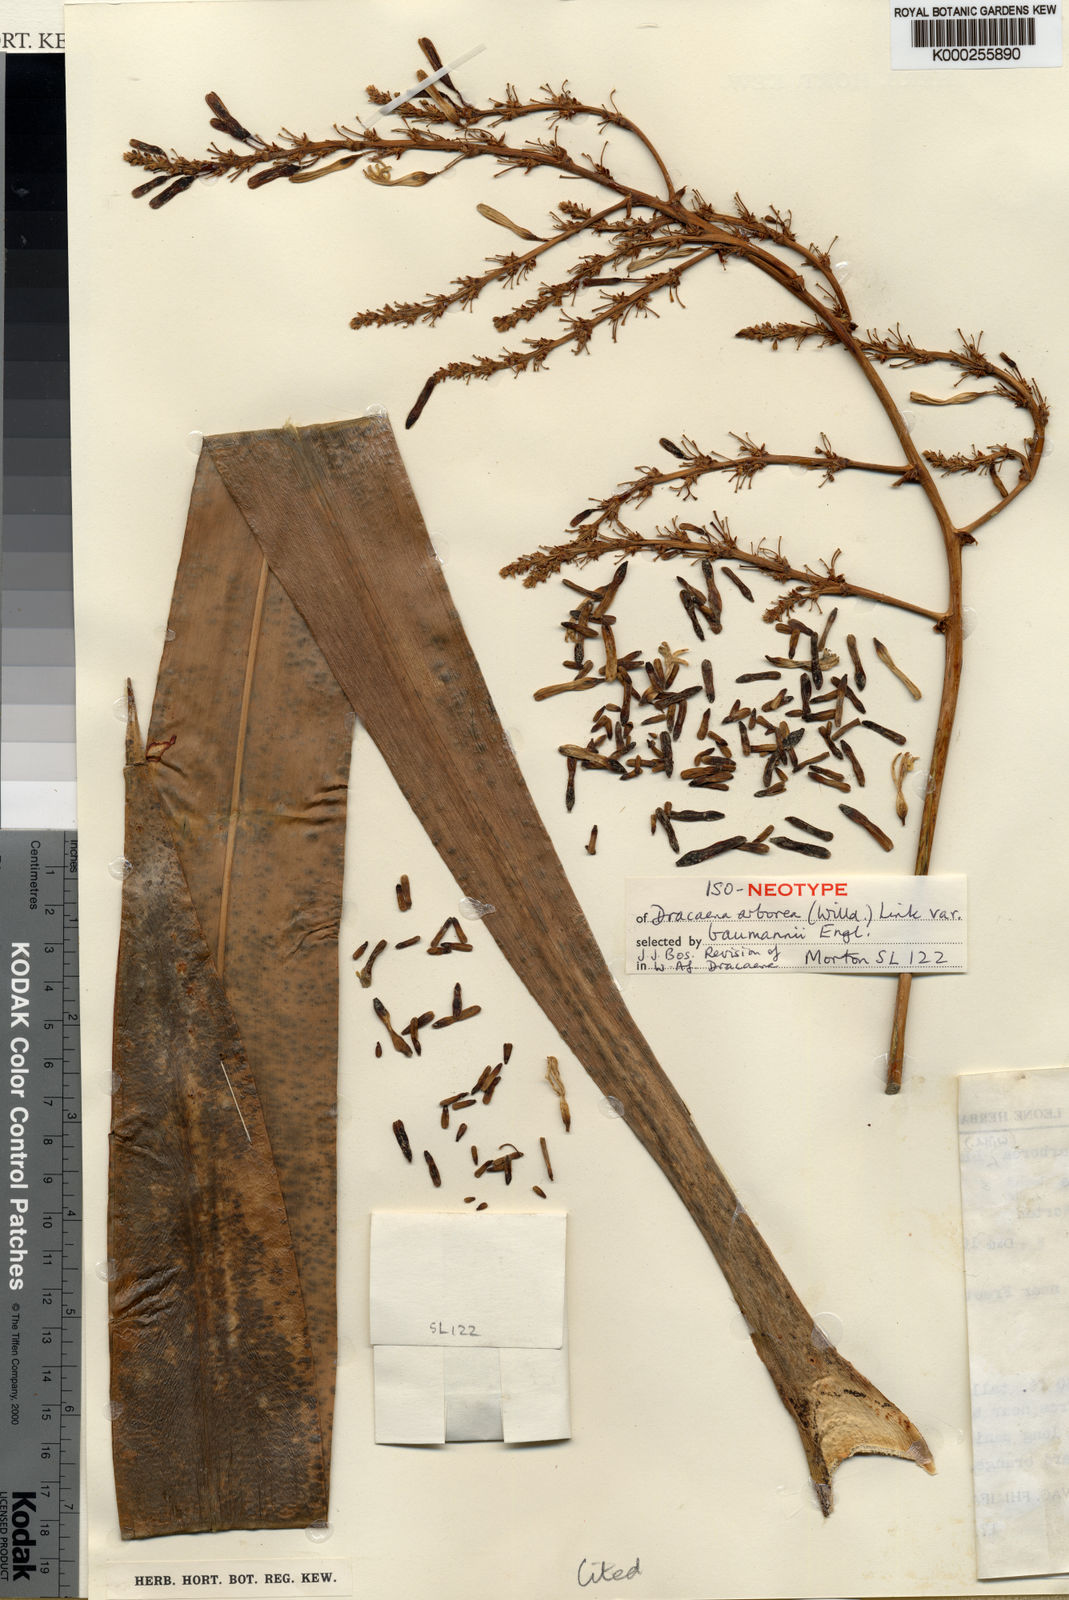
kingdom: Plantae
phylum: Tracheophyta
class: Liliopsida
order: Asparagales
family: Asparagaceae
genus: Dracaena
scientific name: Dracaena arborea
